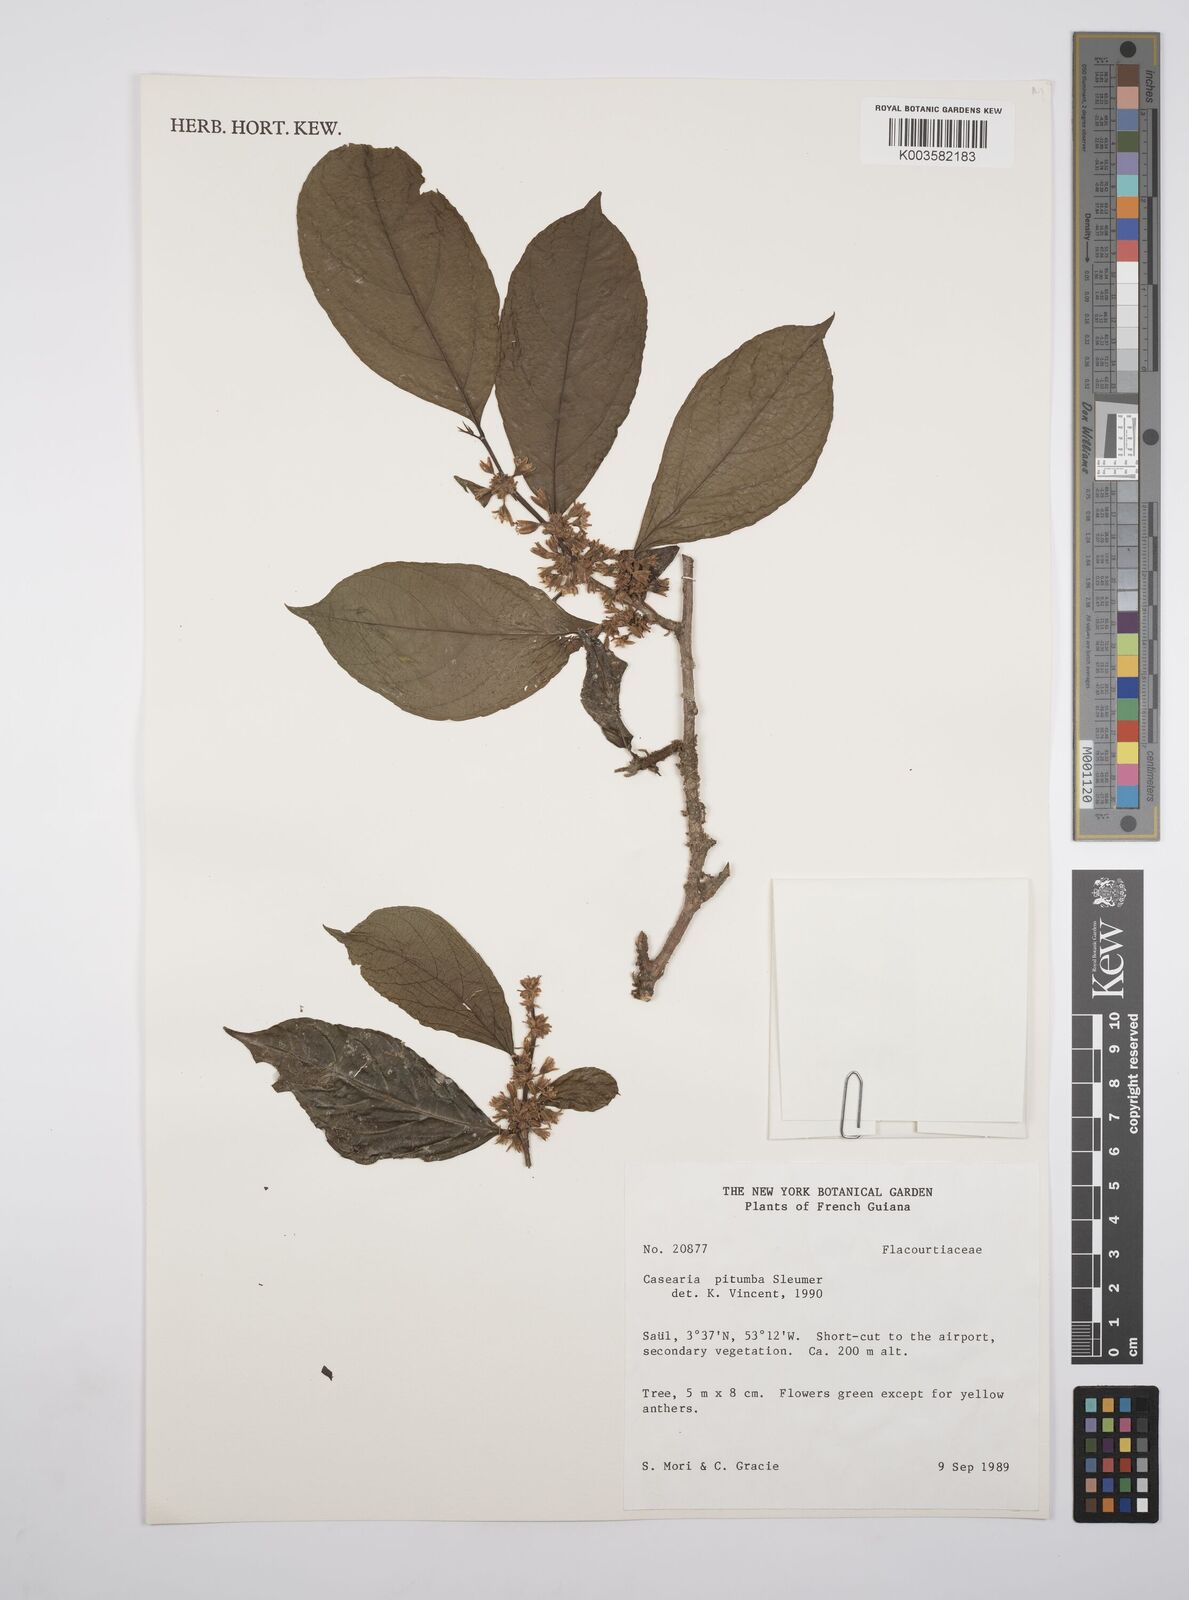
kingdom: Plantae
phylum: Tracheophyta
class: Magnoliopsida
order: Malpighiales
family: Salicaceae
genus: Casearia
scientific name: Casearia pitumba
